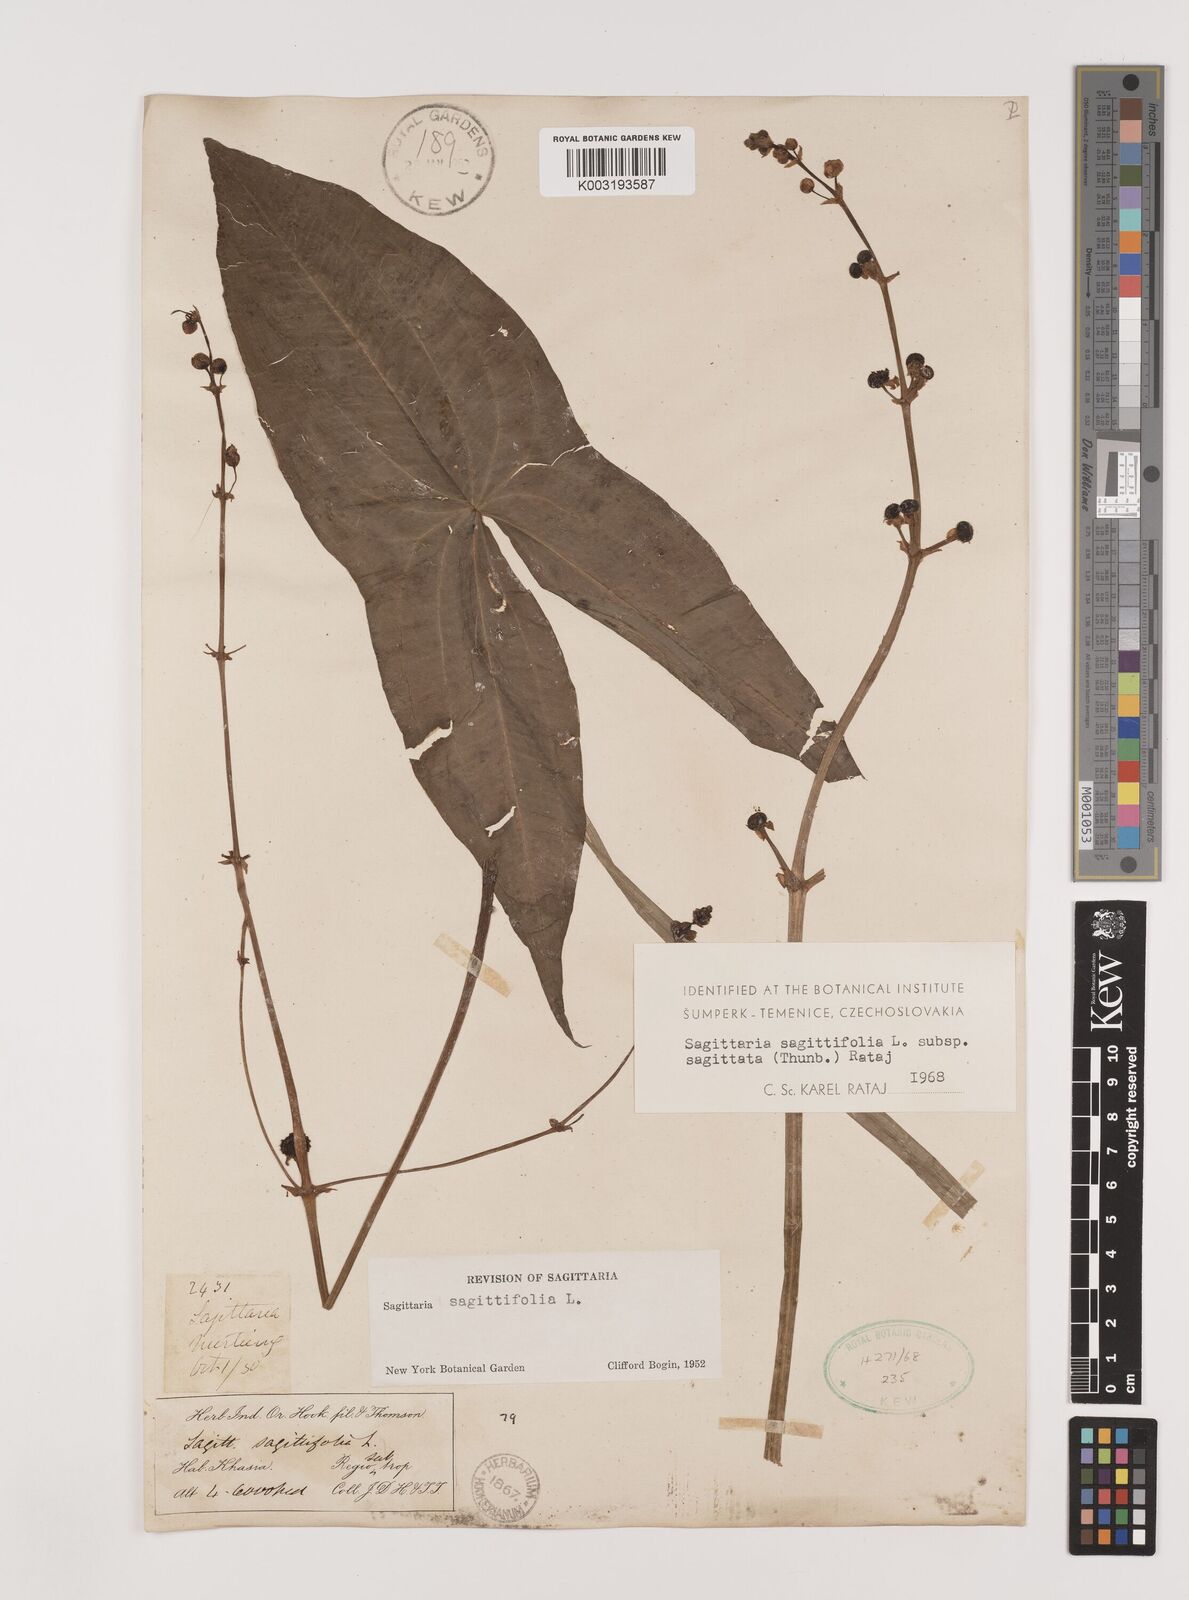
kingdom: Plantae
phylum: Tracheophyta
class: Liliopsida
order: Alismatales
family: Alismataceae
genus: Sagittaria
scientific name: Sagittaria sagittifolia
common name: Arrowhead
